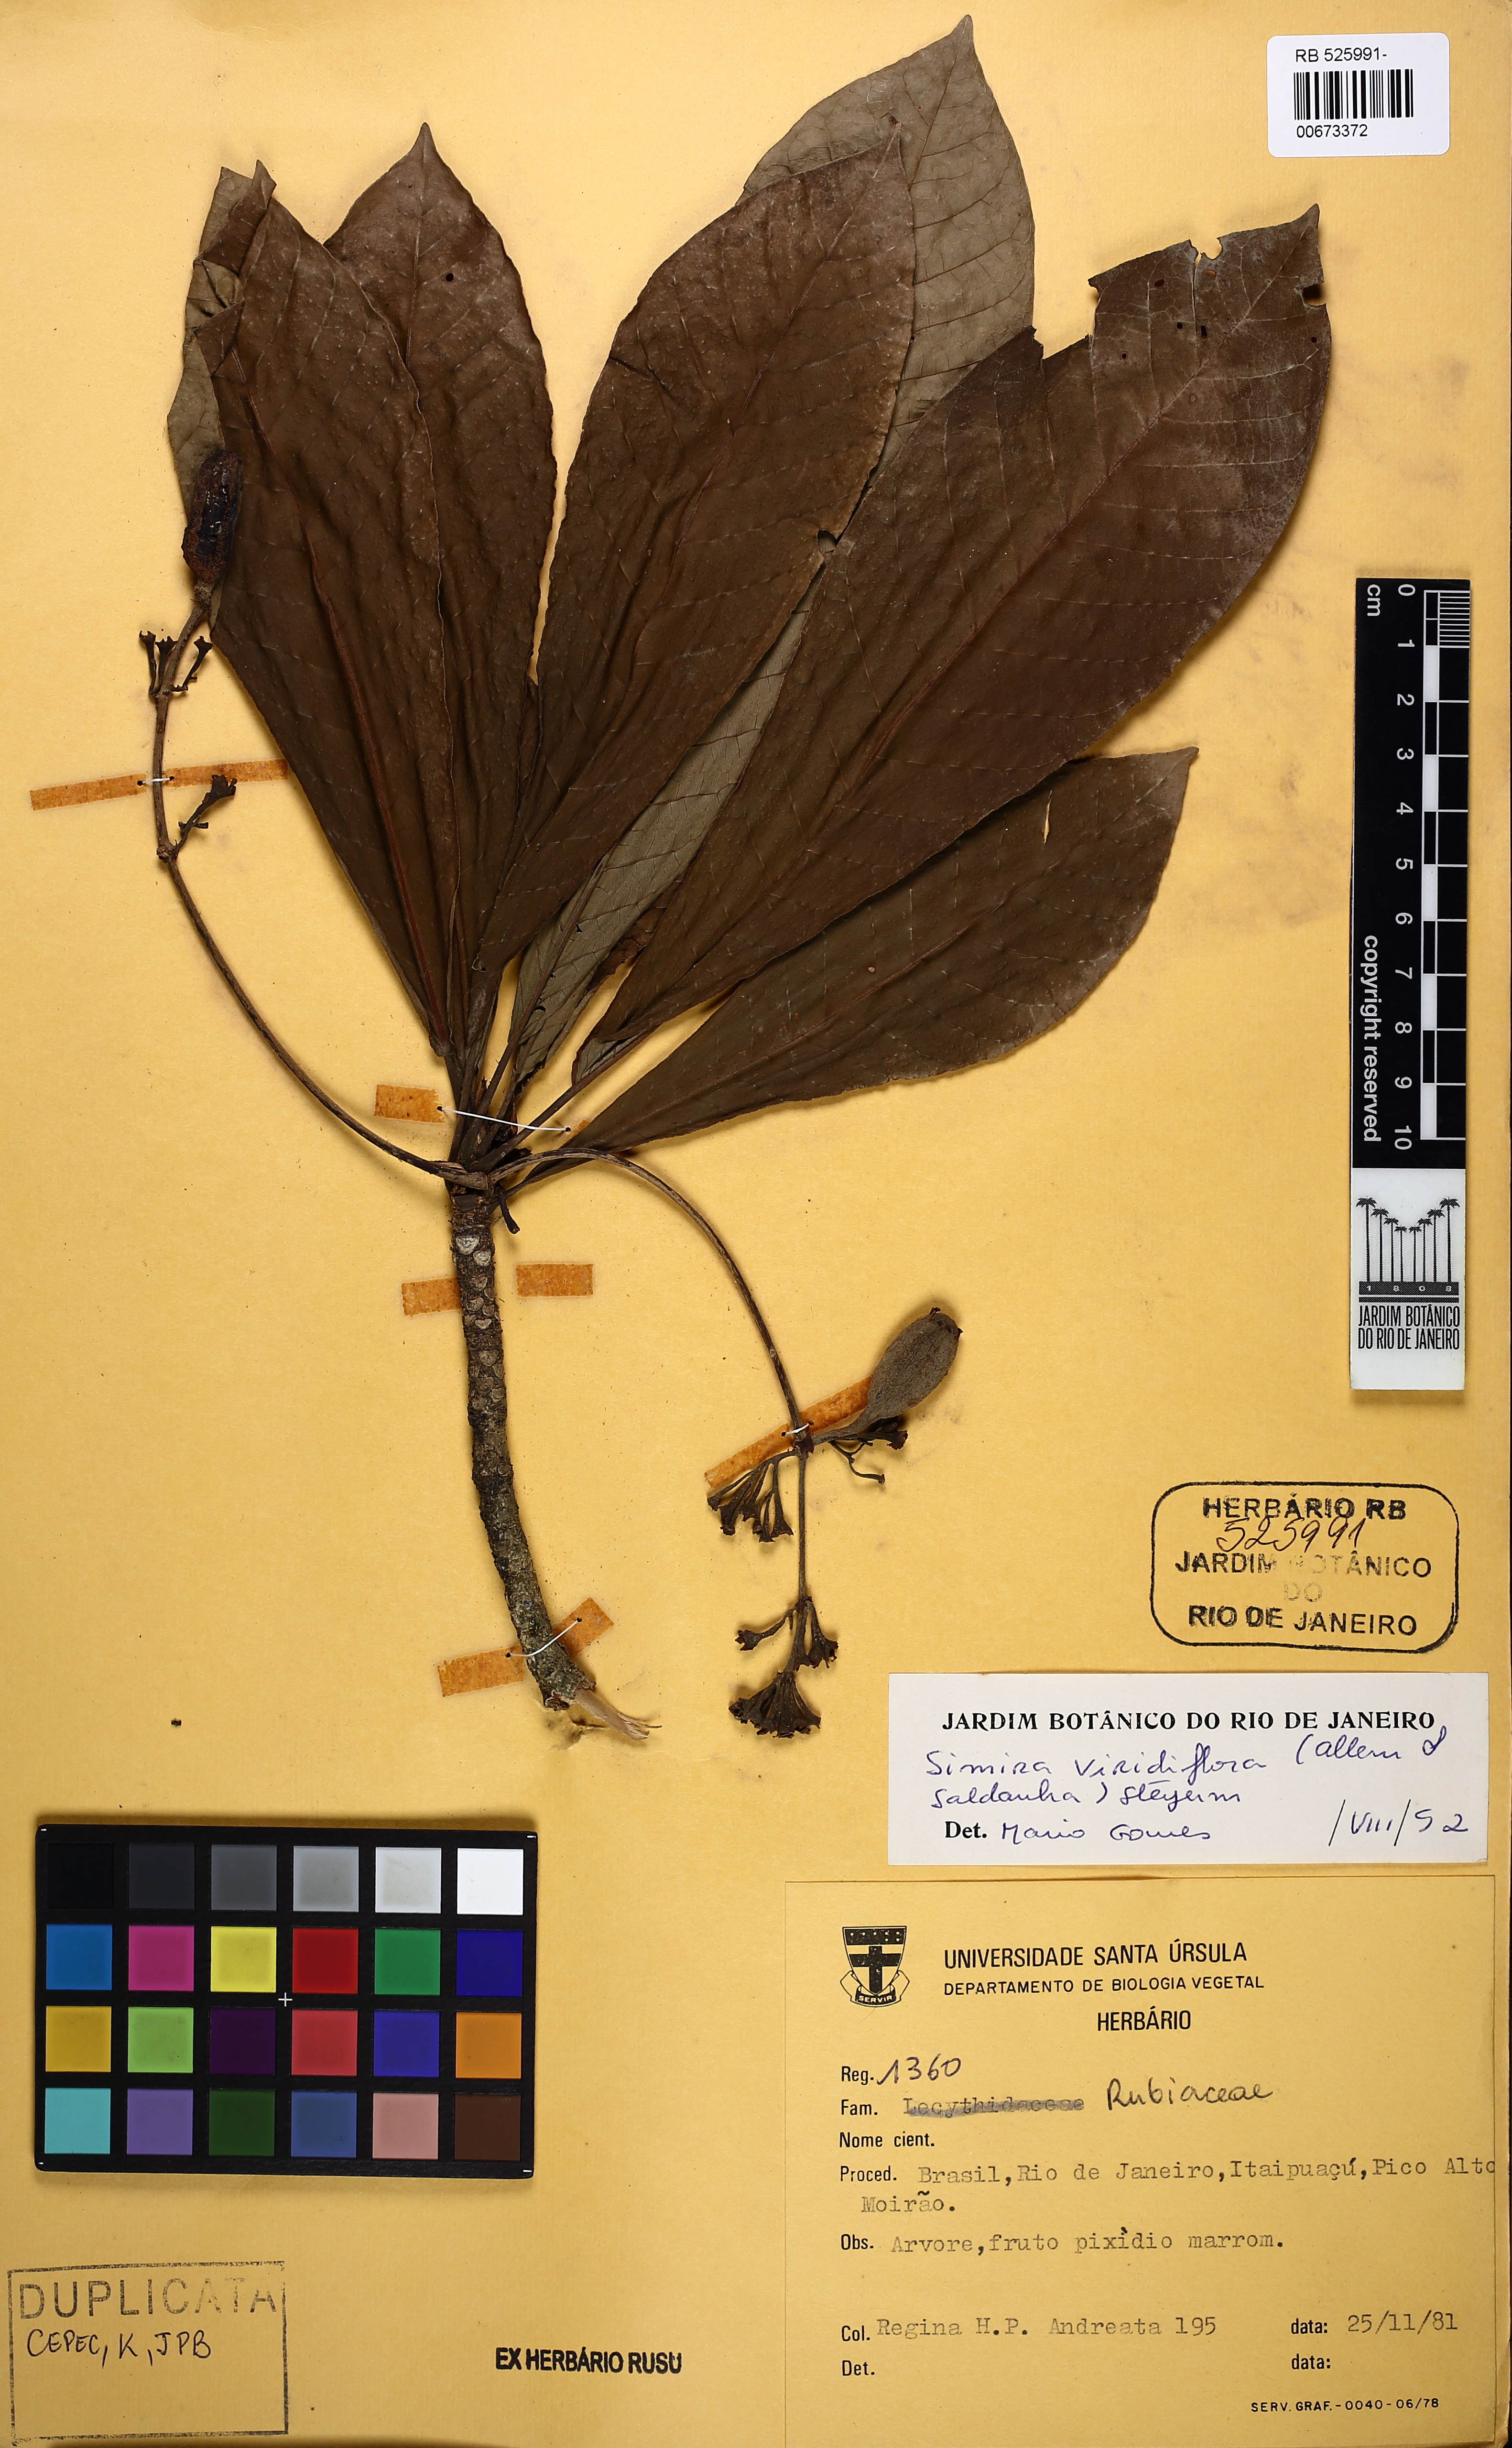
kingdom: Plantae
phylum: Tracheophyta
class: Magnoliopsida
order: Gentianales
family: Rubiaceae
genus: Simira
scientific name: Simira rubra
